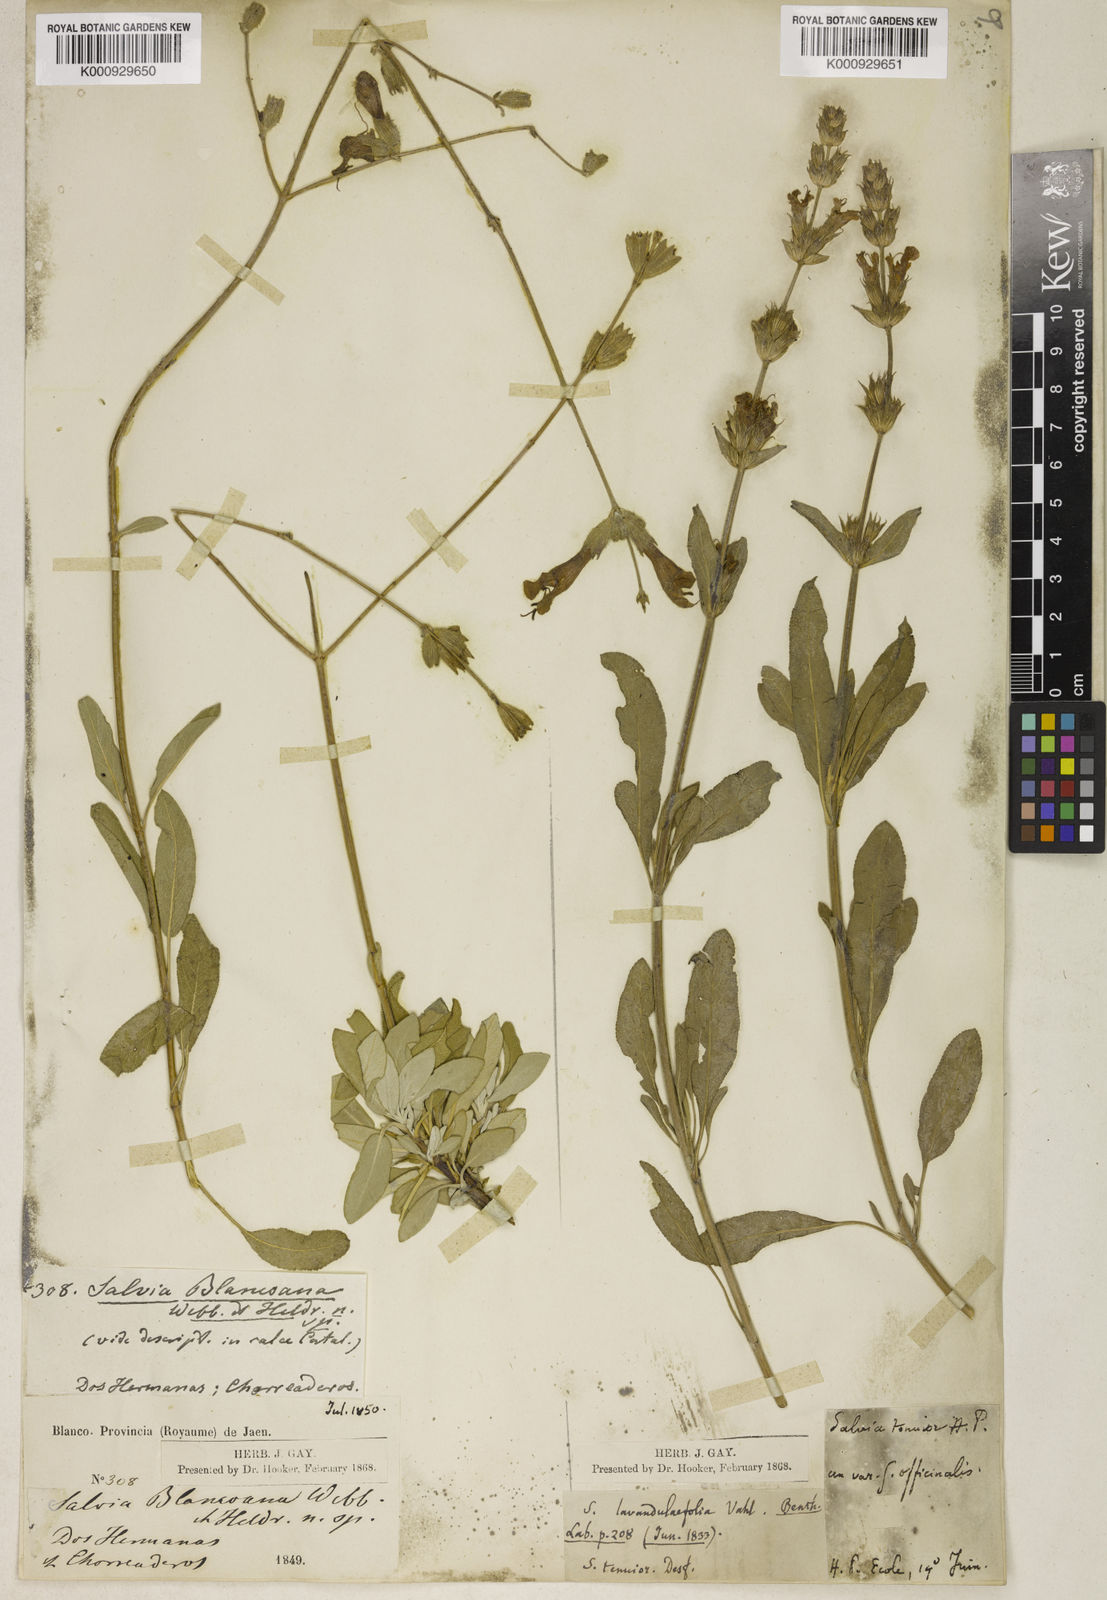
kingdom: Plantae
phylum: Tracheophyta
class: Magnoliopsida
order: Lamiales
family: Lamiaceae
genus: Salvia
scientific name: Salvia blancoana
